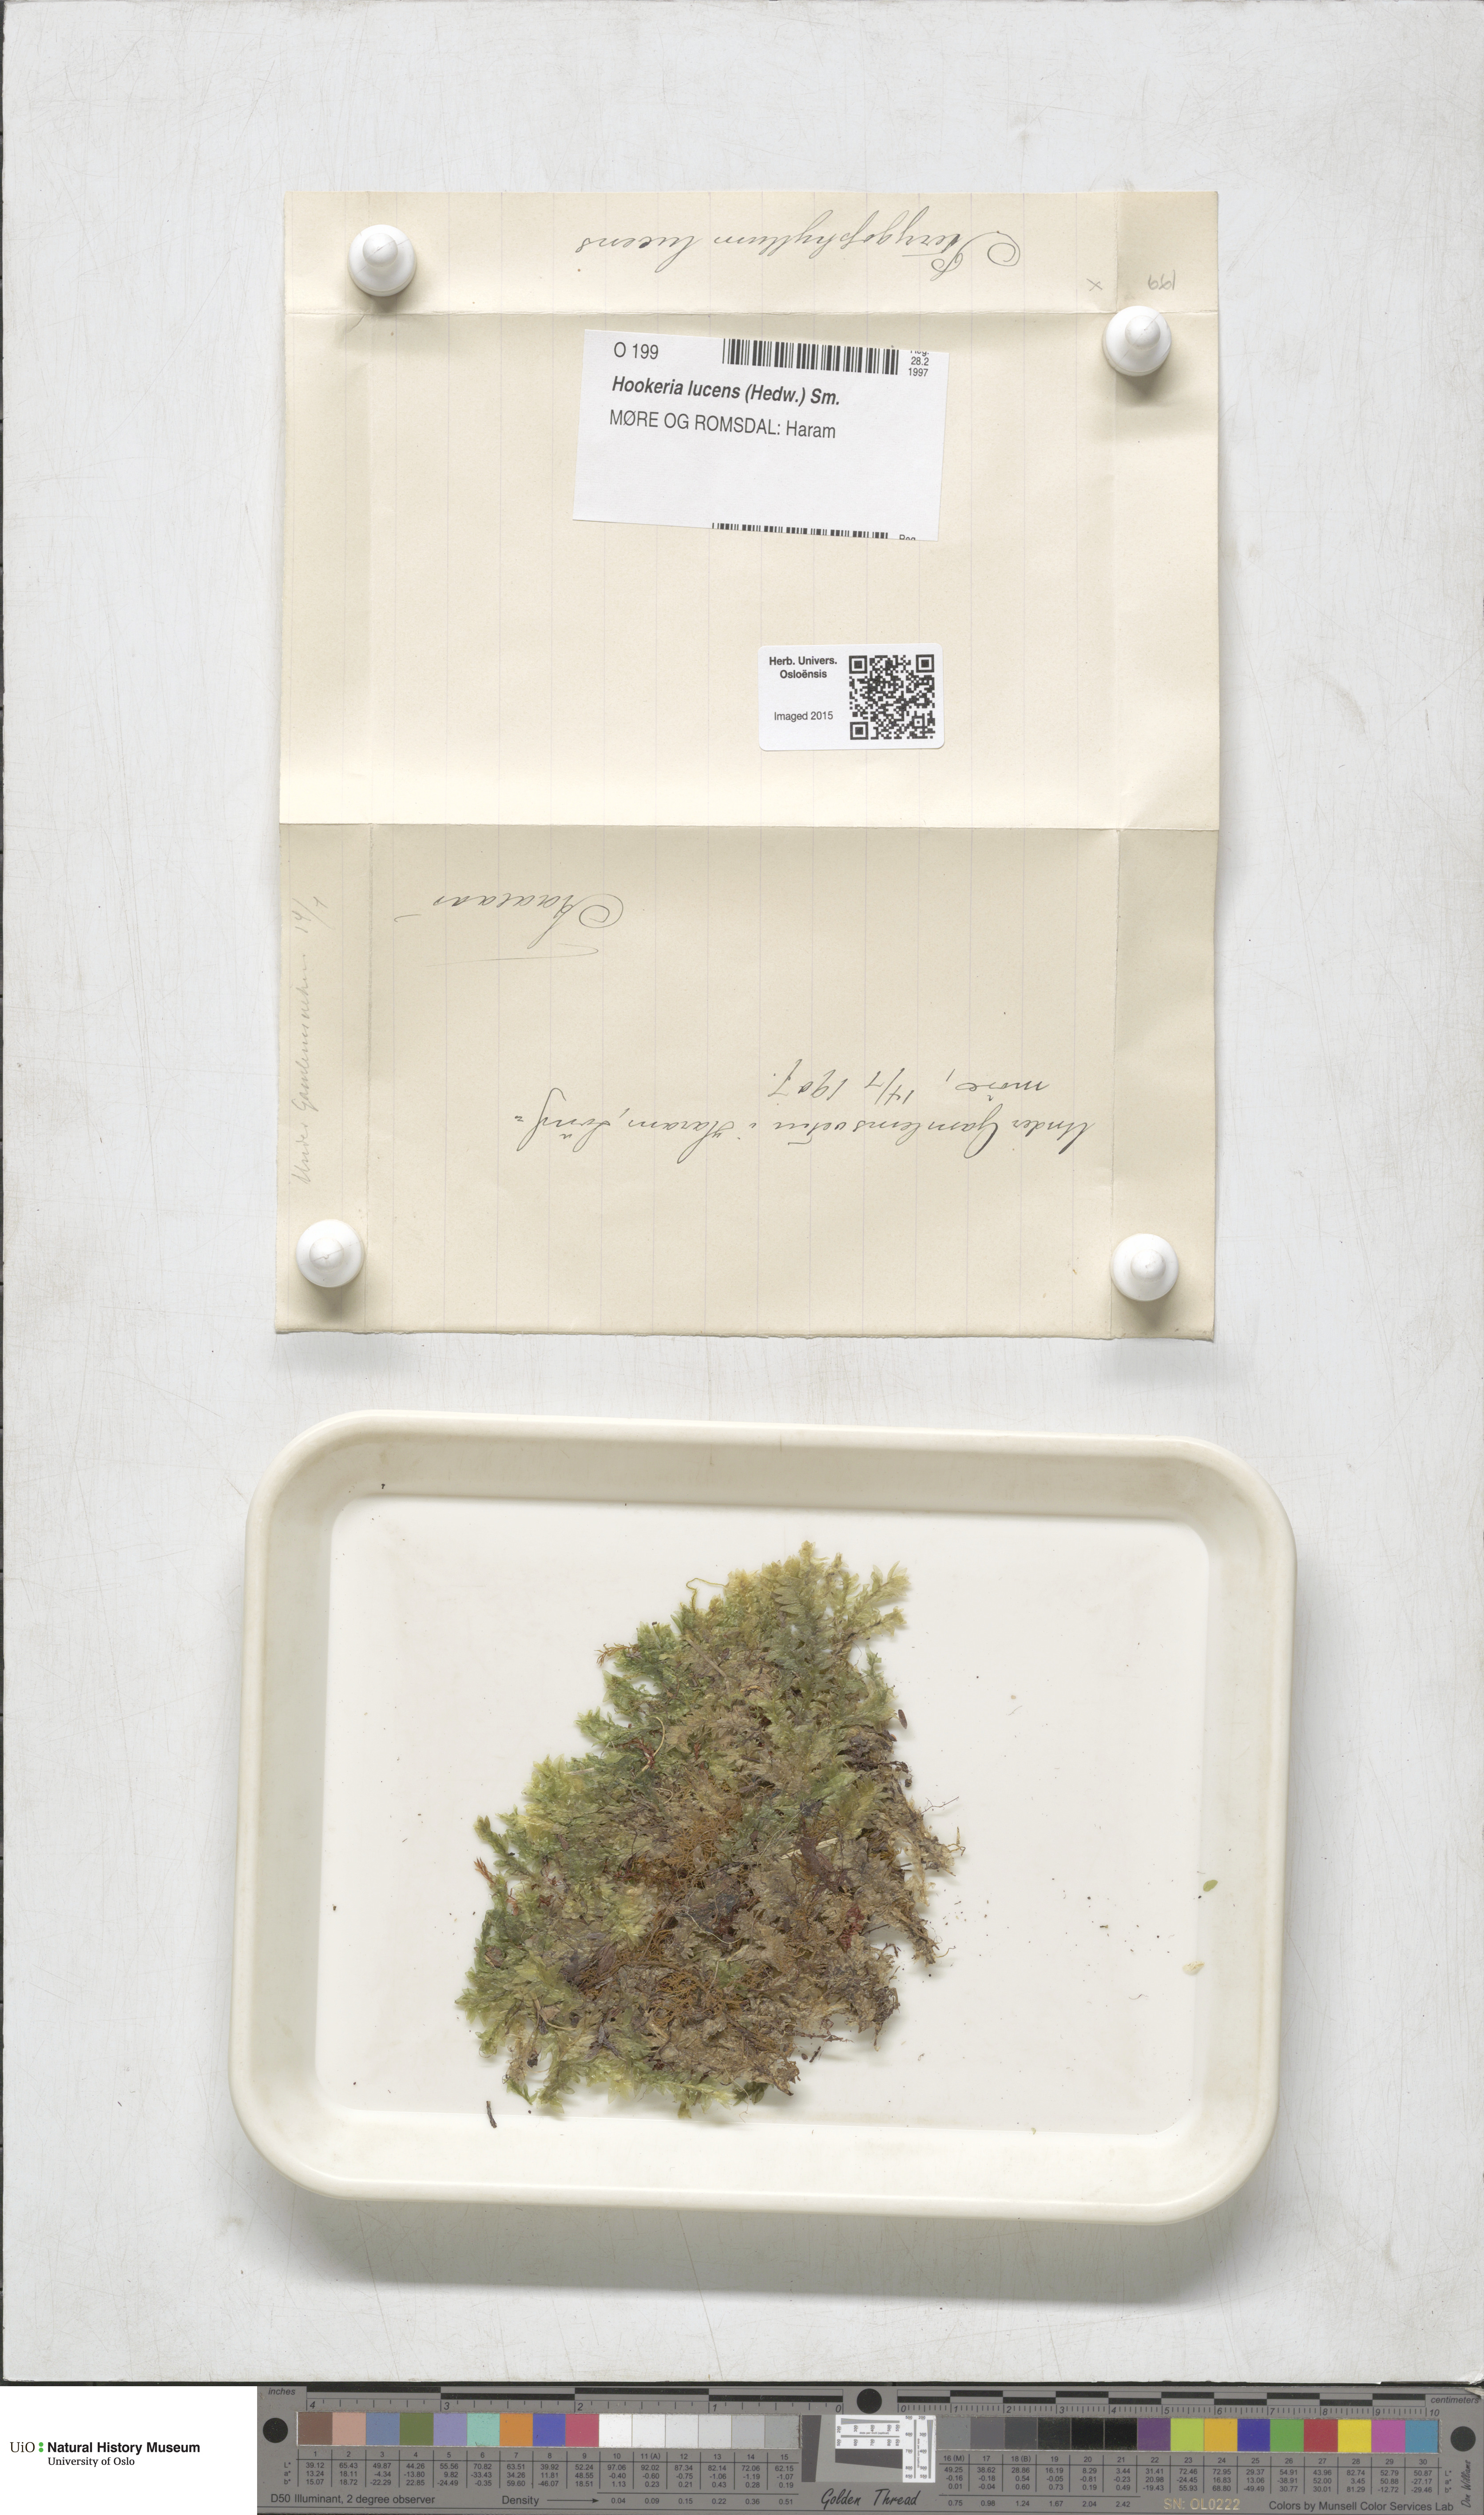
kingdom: Plantae
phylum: Bryophyta
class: Bryopsida
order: Hookeriales
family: Hookeriaceae
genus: Hookeria
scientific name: Hookeria lucens
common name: Shining hookeria
